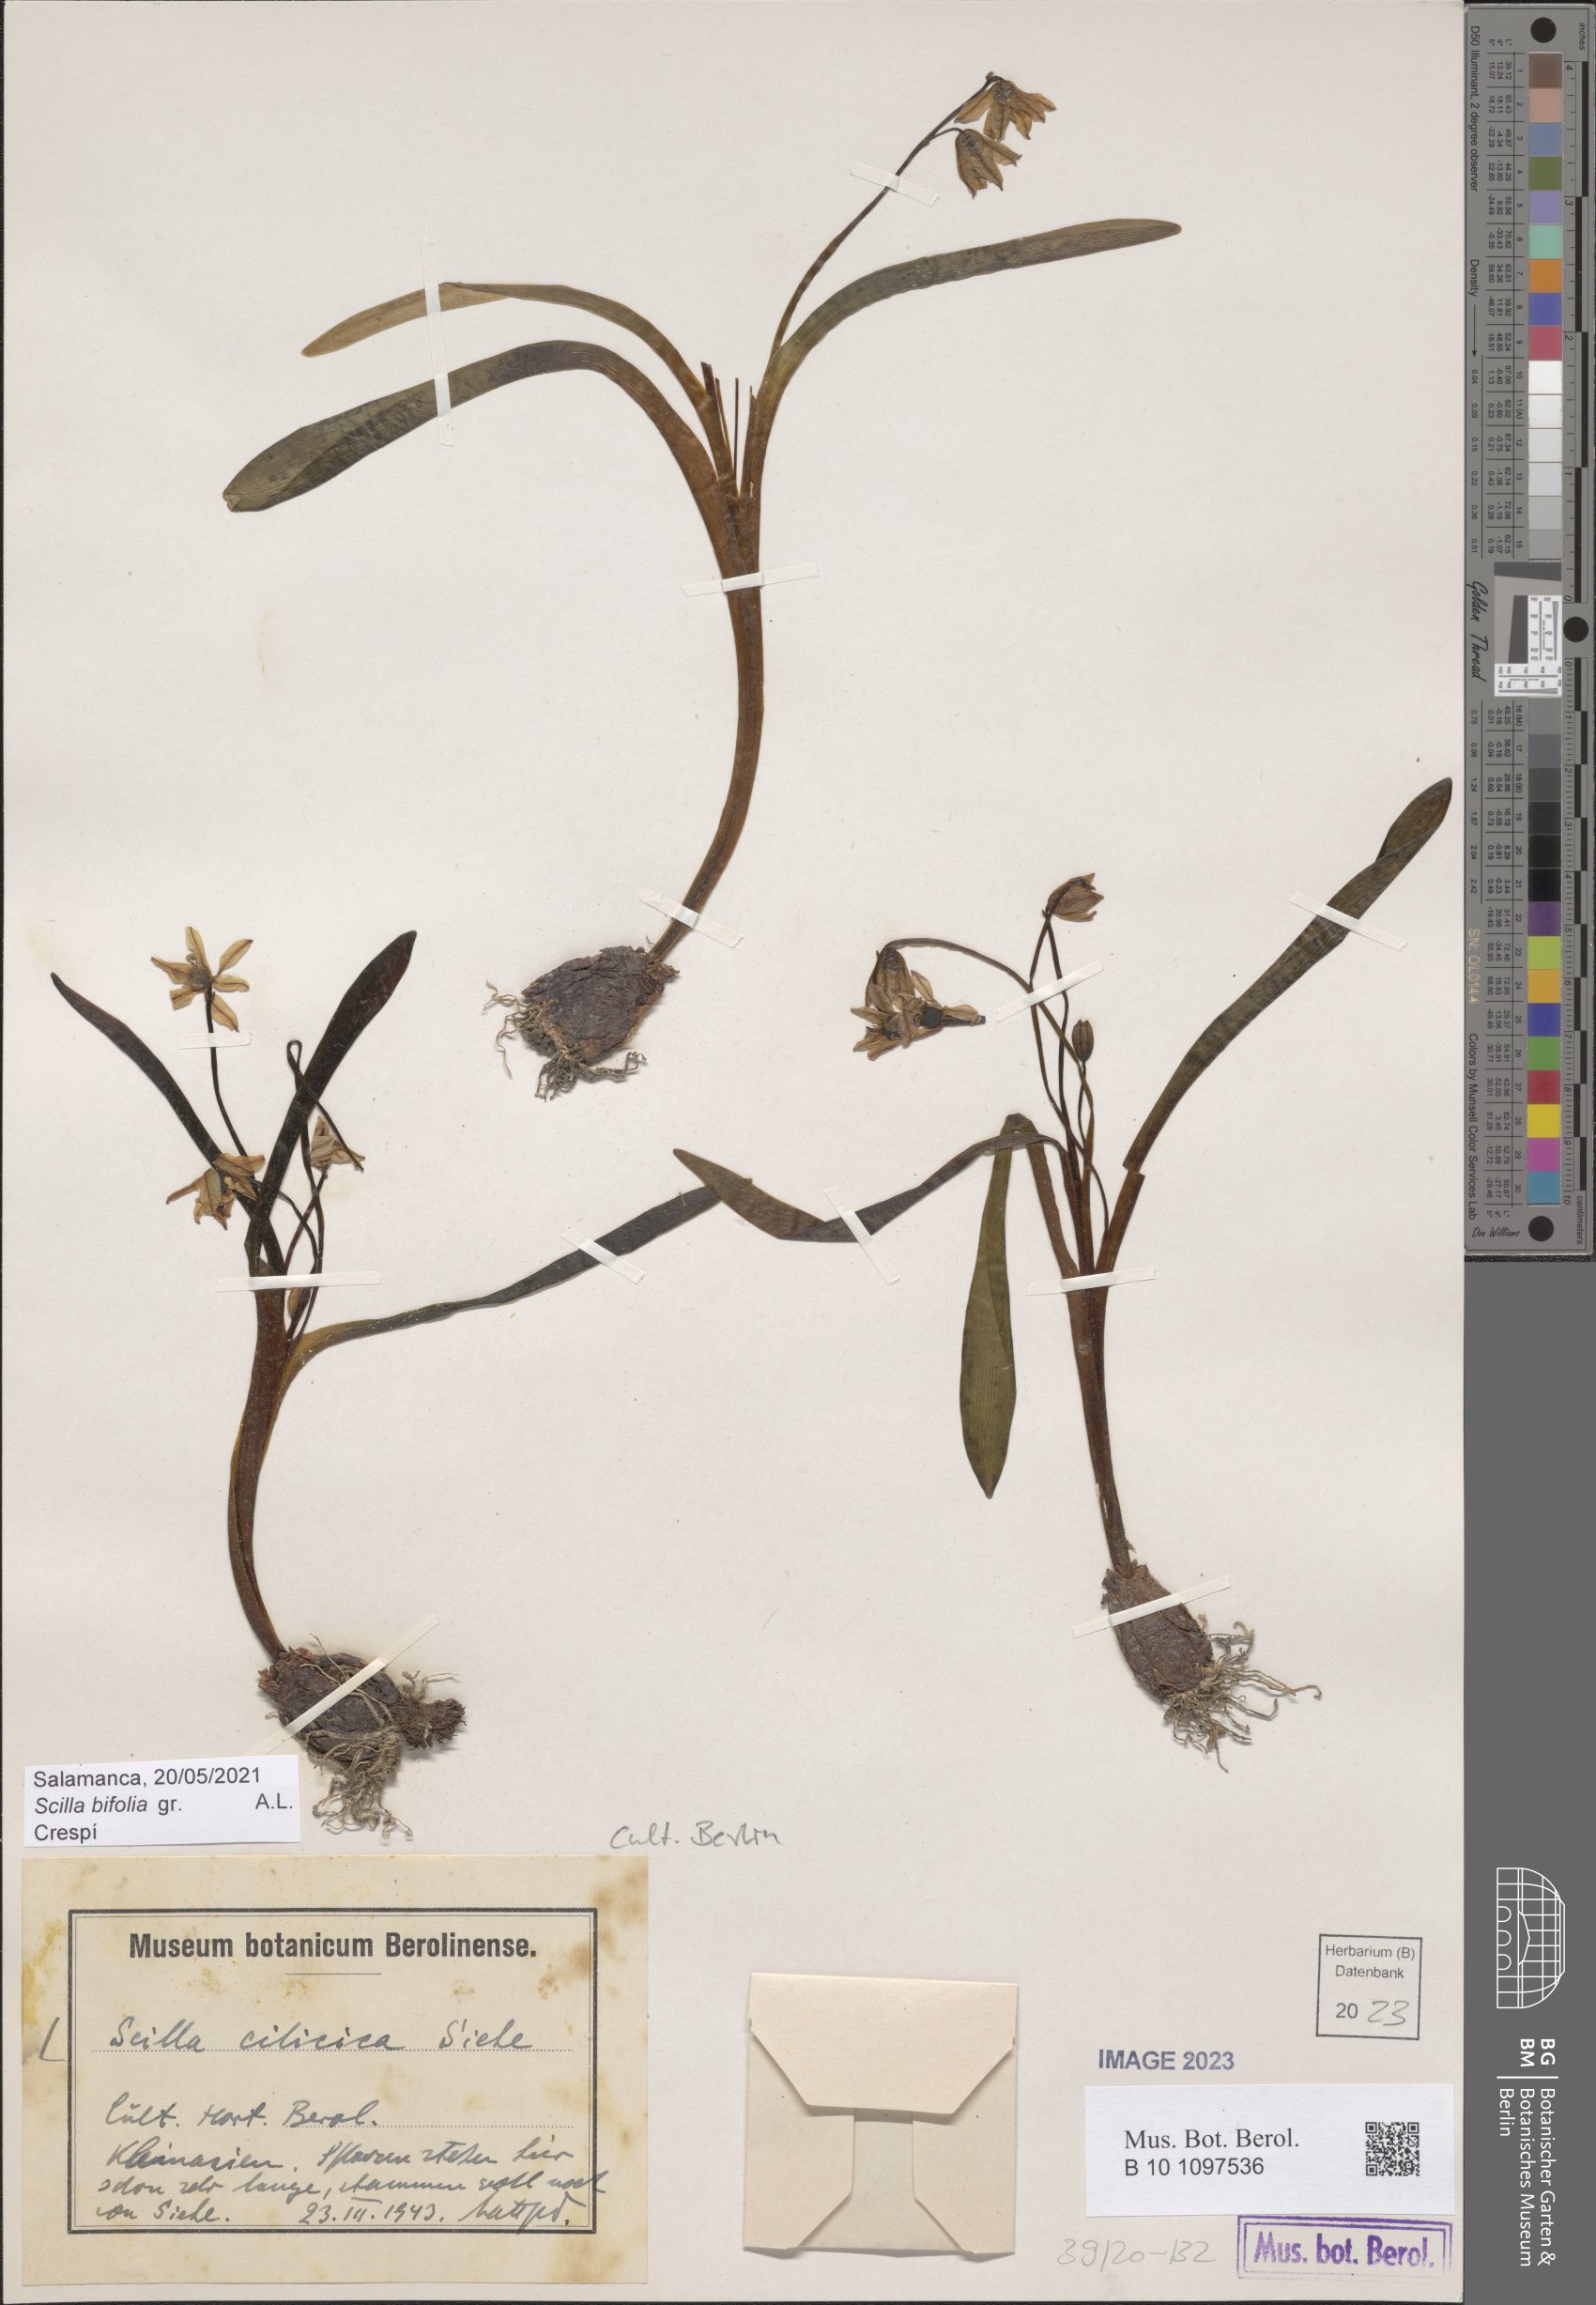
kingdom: Plantae
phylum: Tracheophyta
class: Liliopsida
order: Asparagales
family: Asparagaceae
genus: Scilla
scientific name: Scilla cilicica
